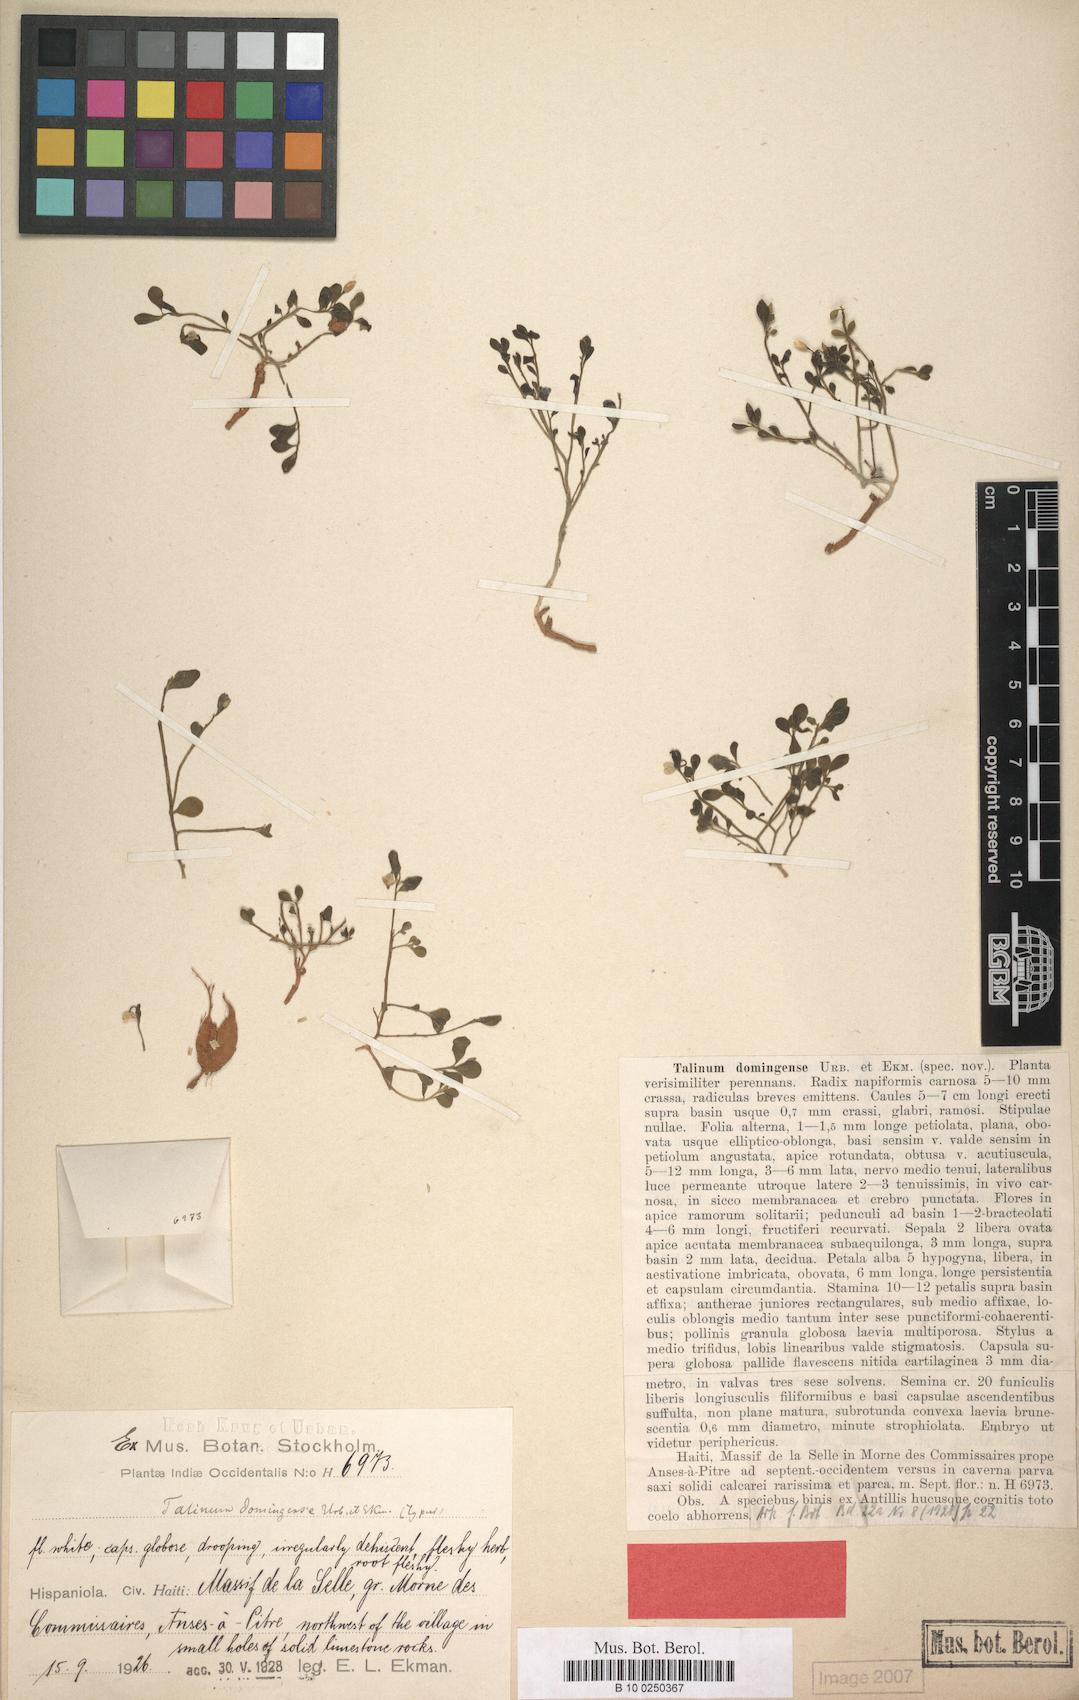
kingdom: Plantae
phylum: Tracheophyta
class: Magnoliopsida
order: Caryophyllales
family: Talinaceae
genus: Talinum
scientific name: Talinum domingense
